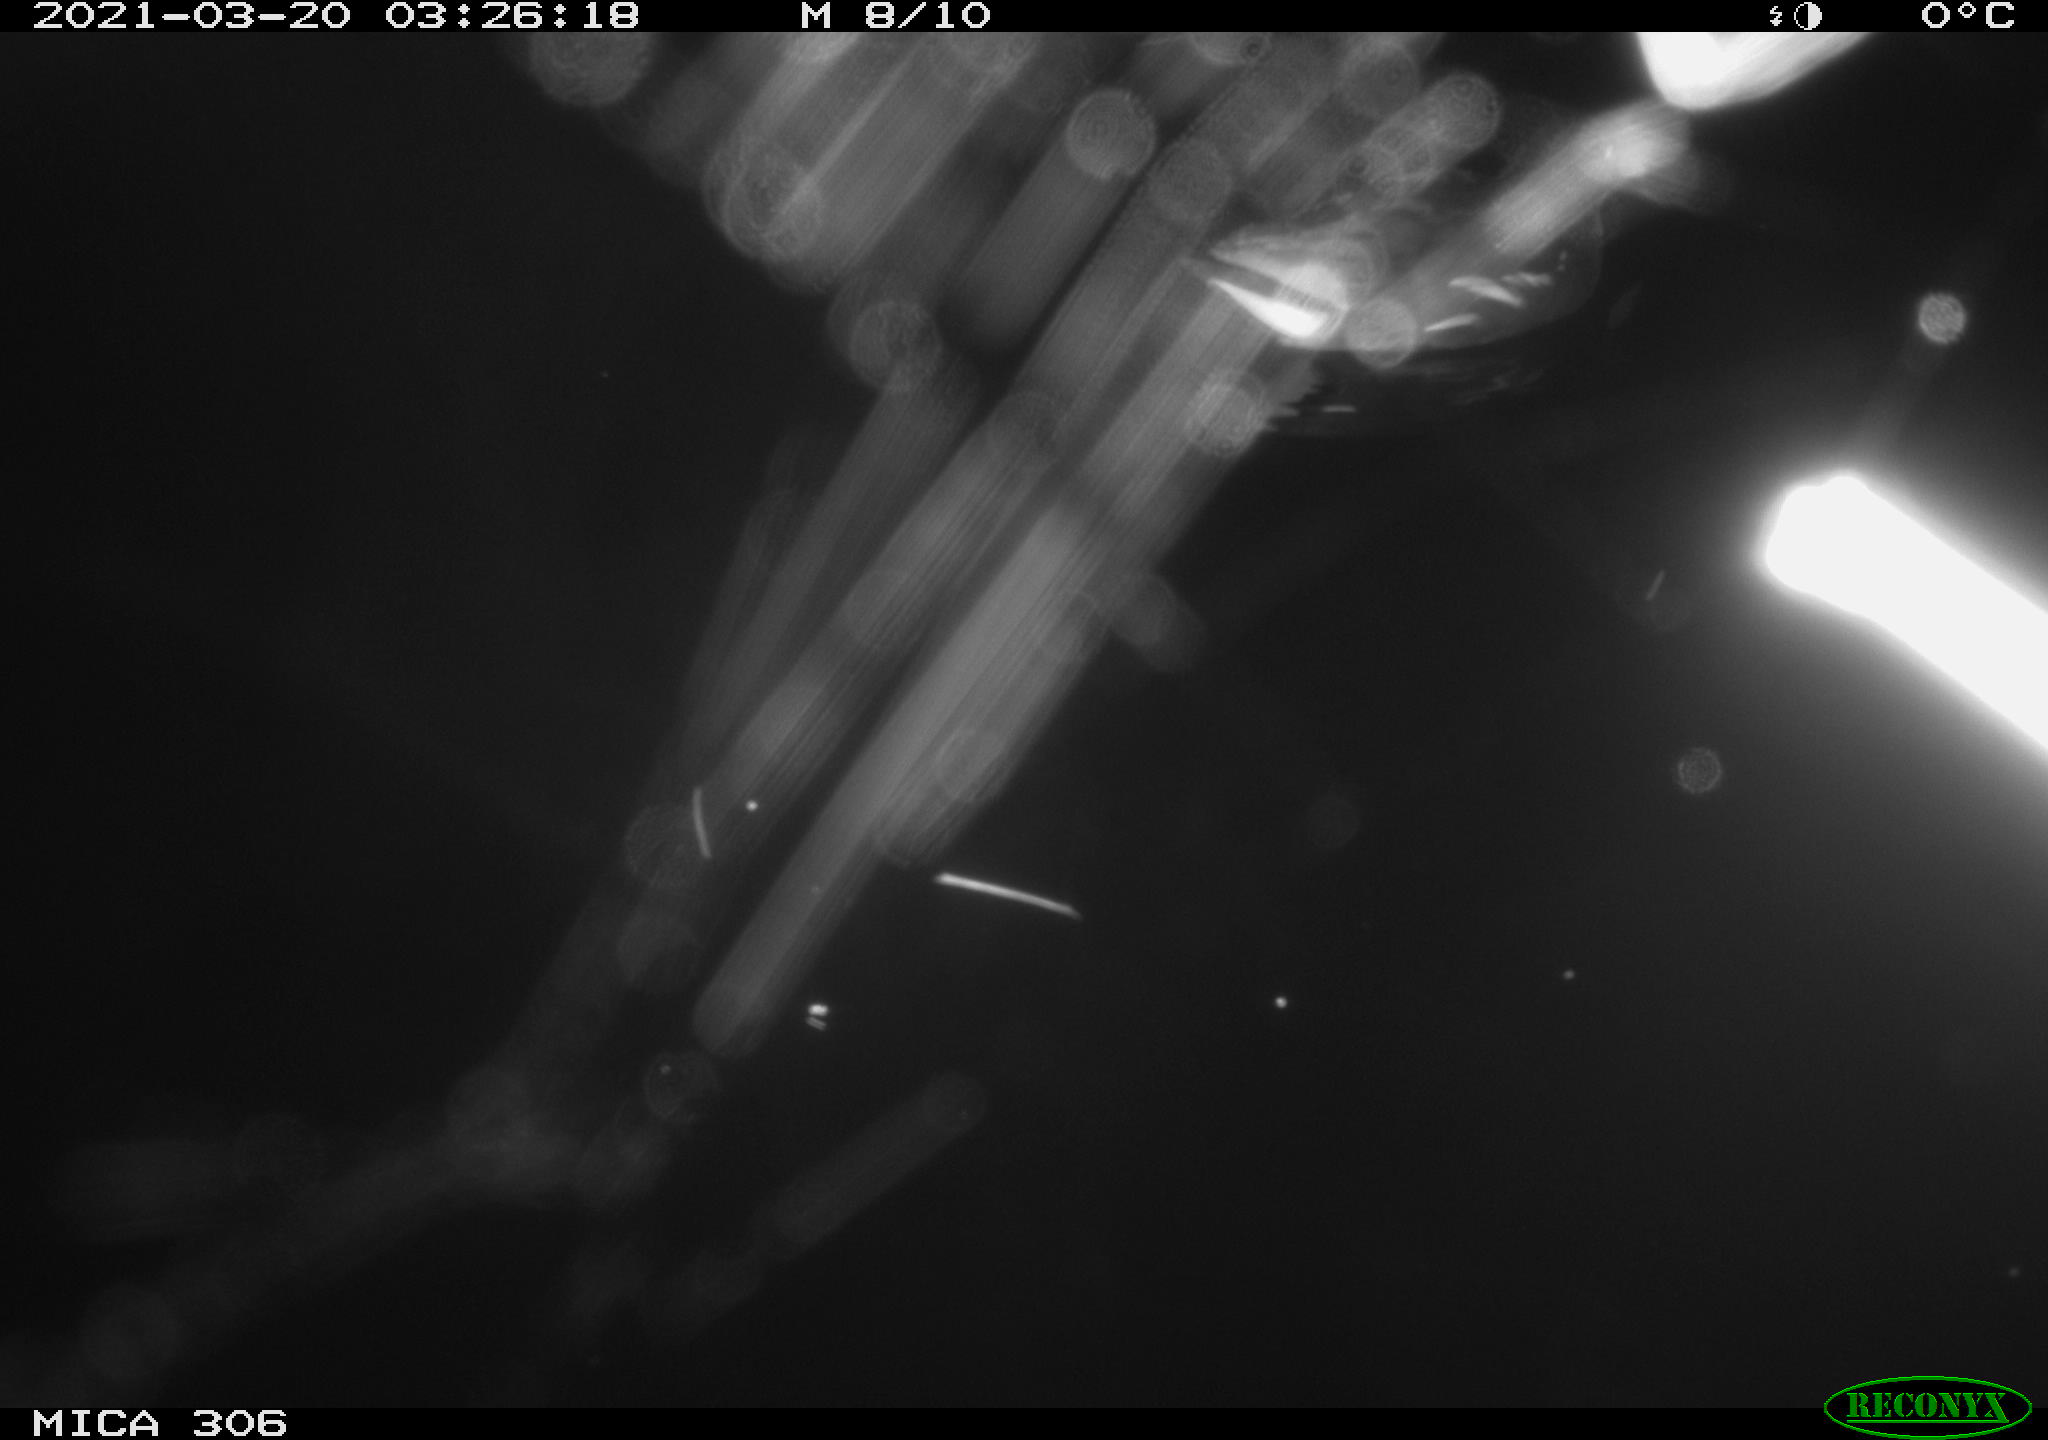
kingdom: Animalia
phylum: Chordata
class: Aves
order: Gruiformes
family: Rallidae
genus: Gallinula
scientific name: Gallinula chloropus
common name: Common moorhen
